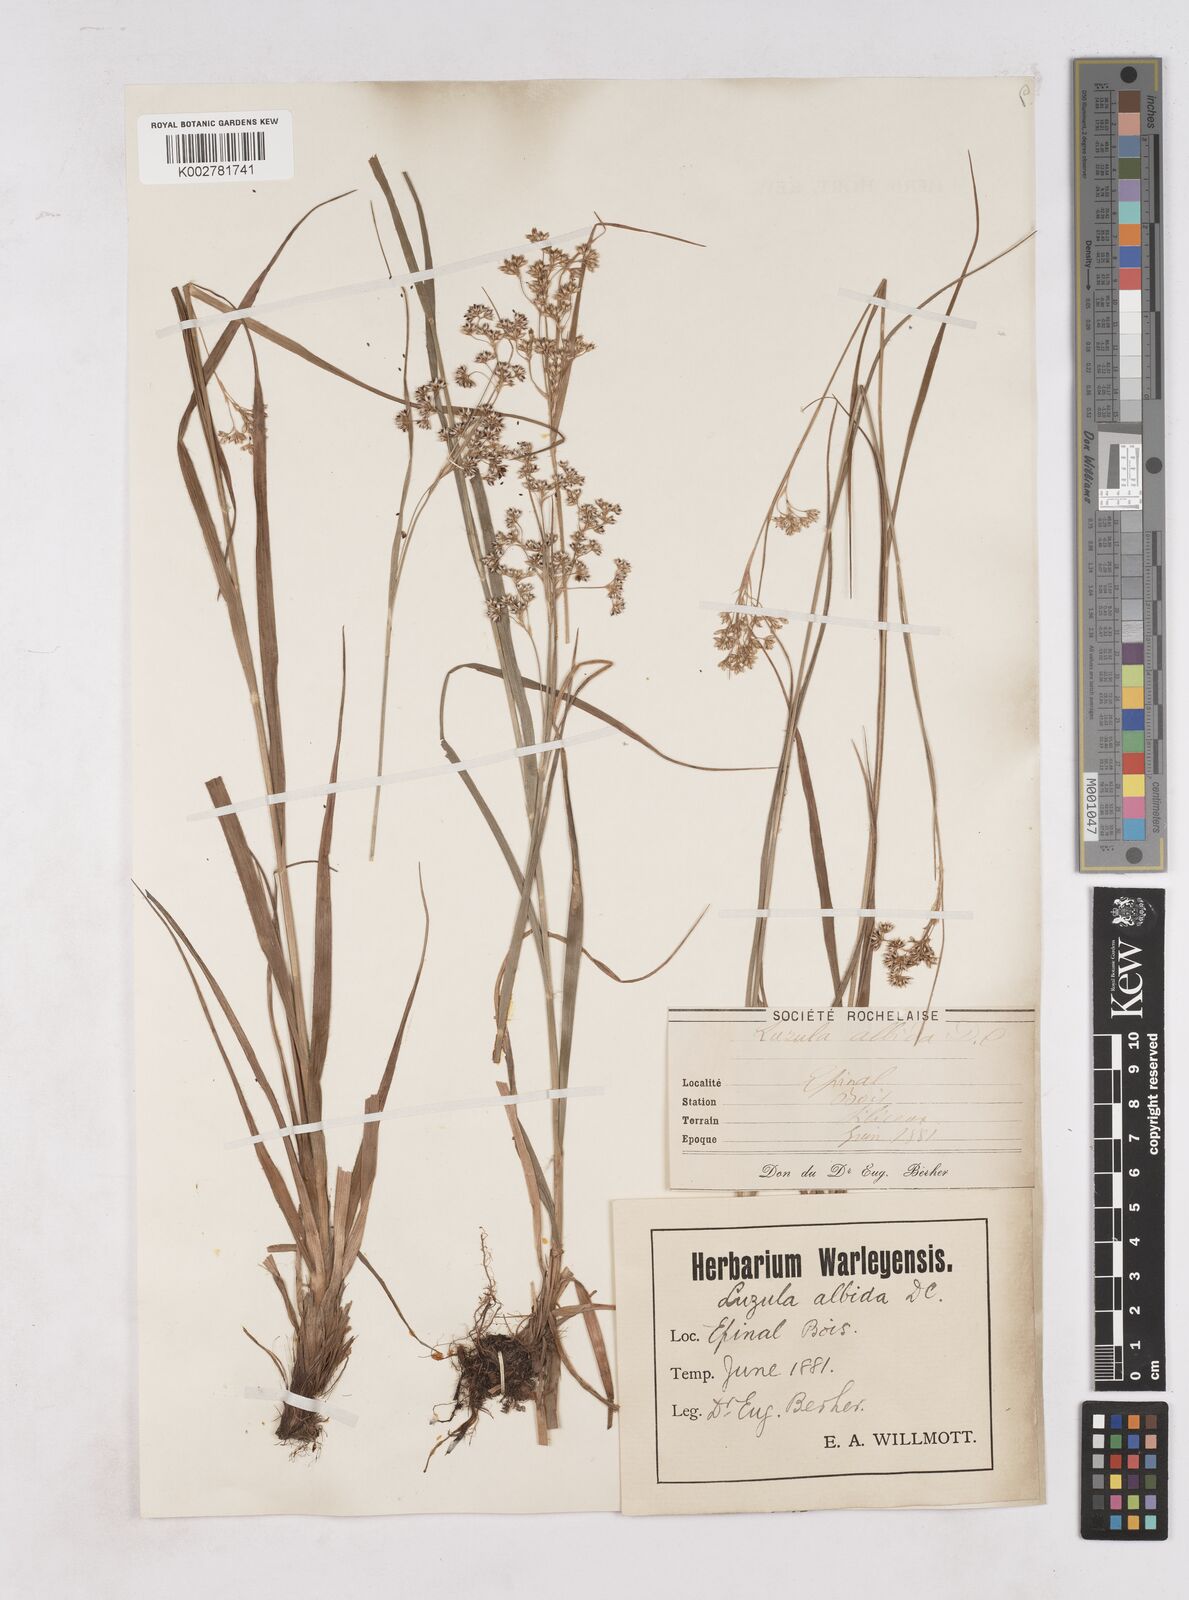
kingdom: Plantae
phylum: Tracheophyta
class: Liliopsida
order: Poales
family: Juncaceae
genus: Luzula
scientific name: Luzula luzuloides
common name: White wood-rush
